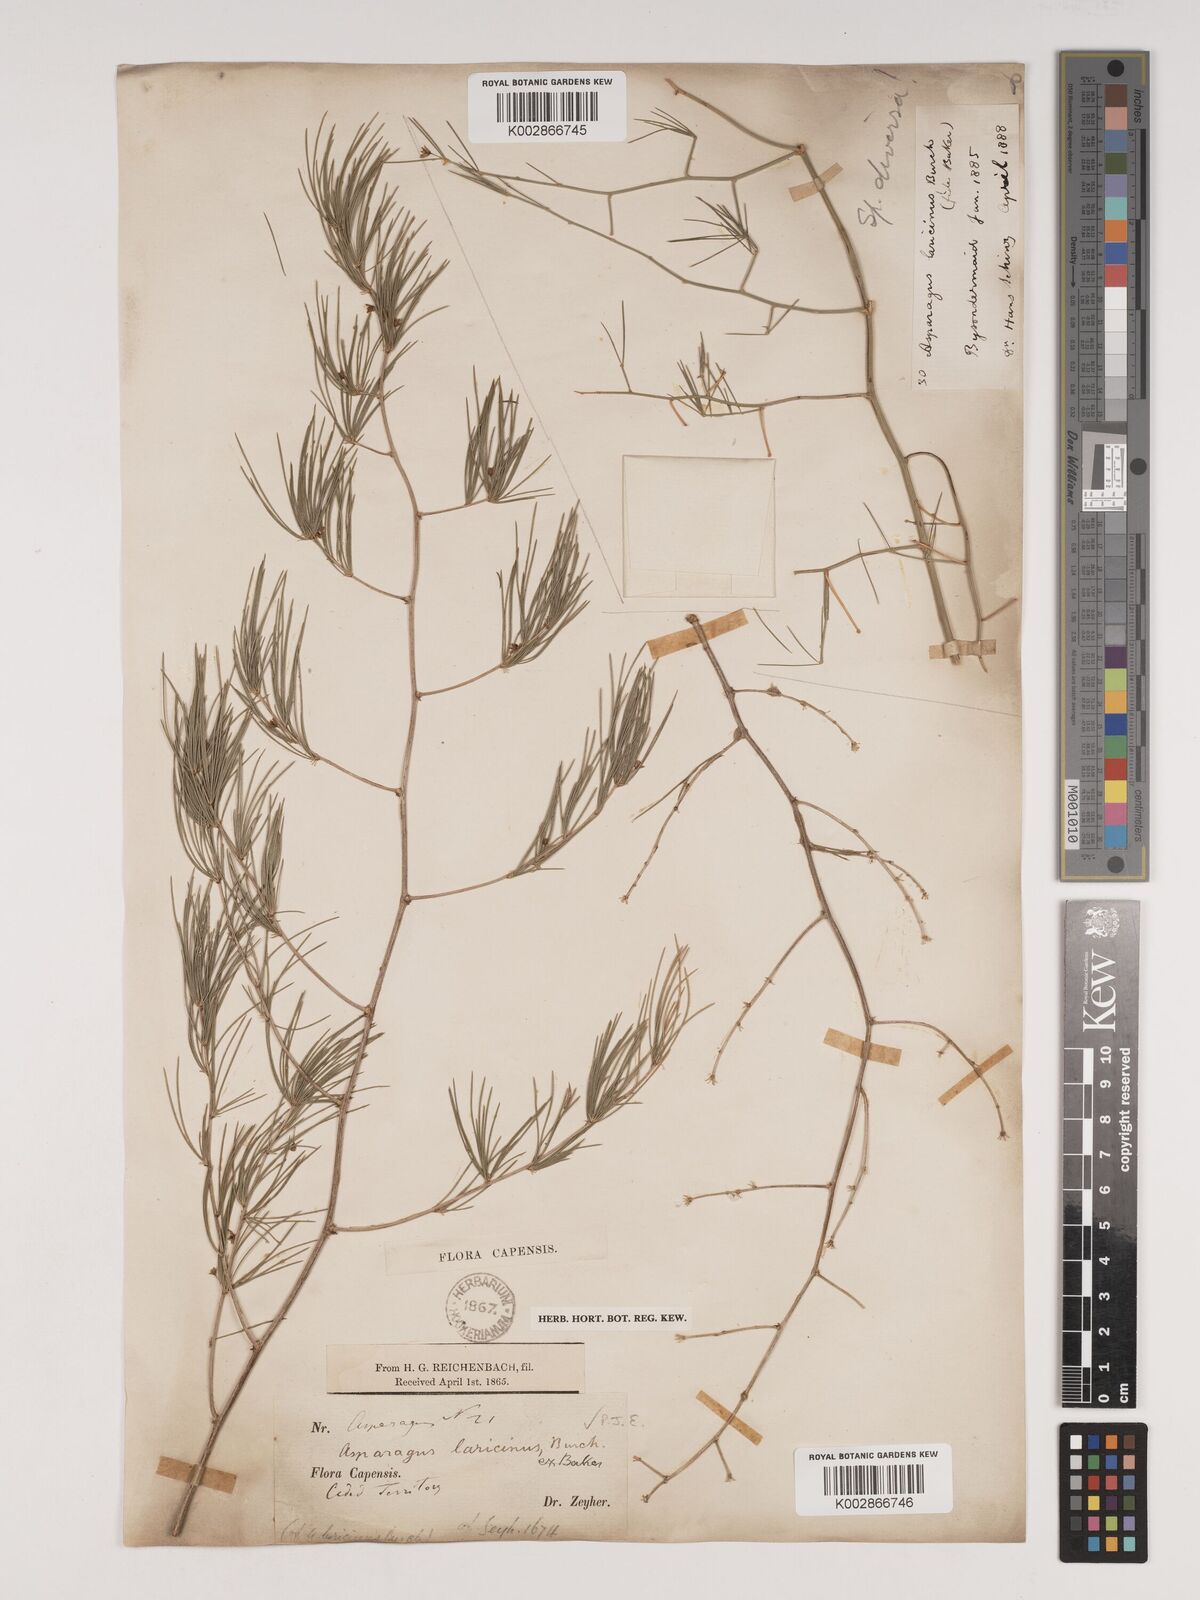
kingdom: Plantae
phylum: Tracheophyta
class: Liliopsida
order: Asparagales
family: Asparagaceae
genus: Asparagus
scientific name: Asparagus laricinus
